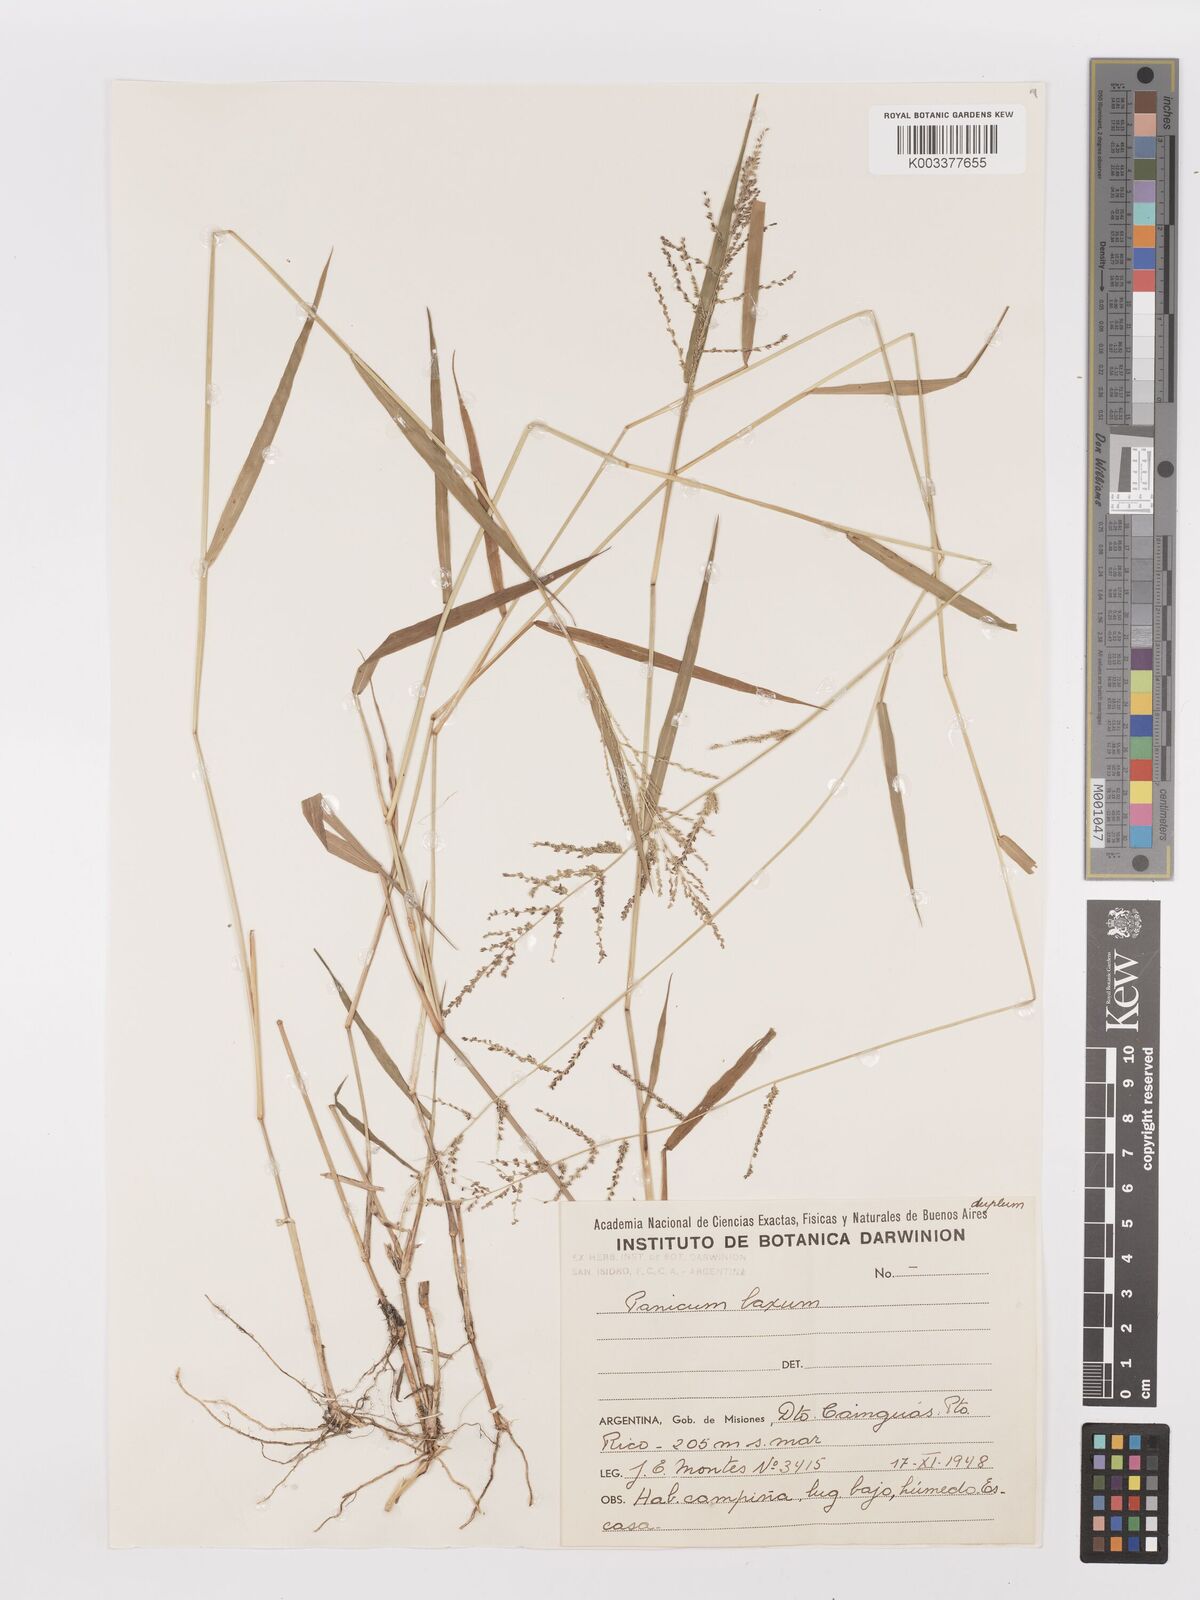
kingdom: Plantae
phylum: Tracheophyta
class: Liliopsida
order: Poales
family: Poaceae
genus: Steinchisma
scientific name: Steinchisma laxum
